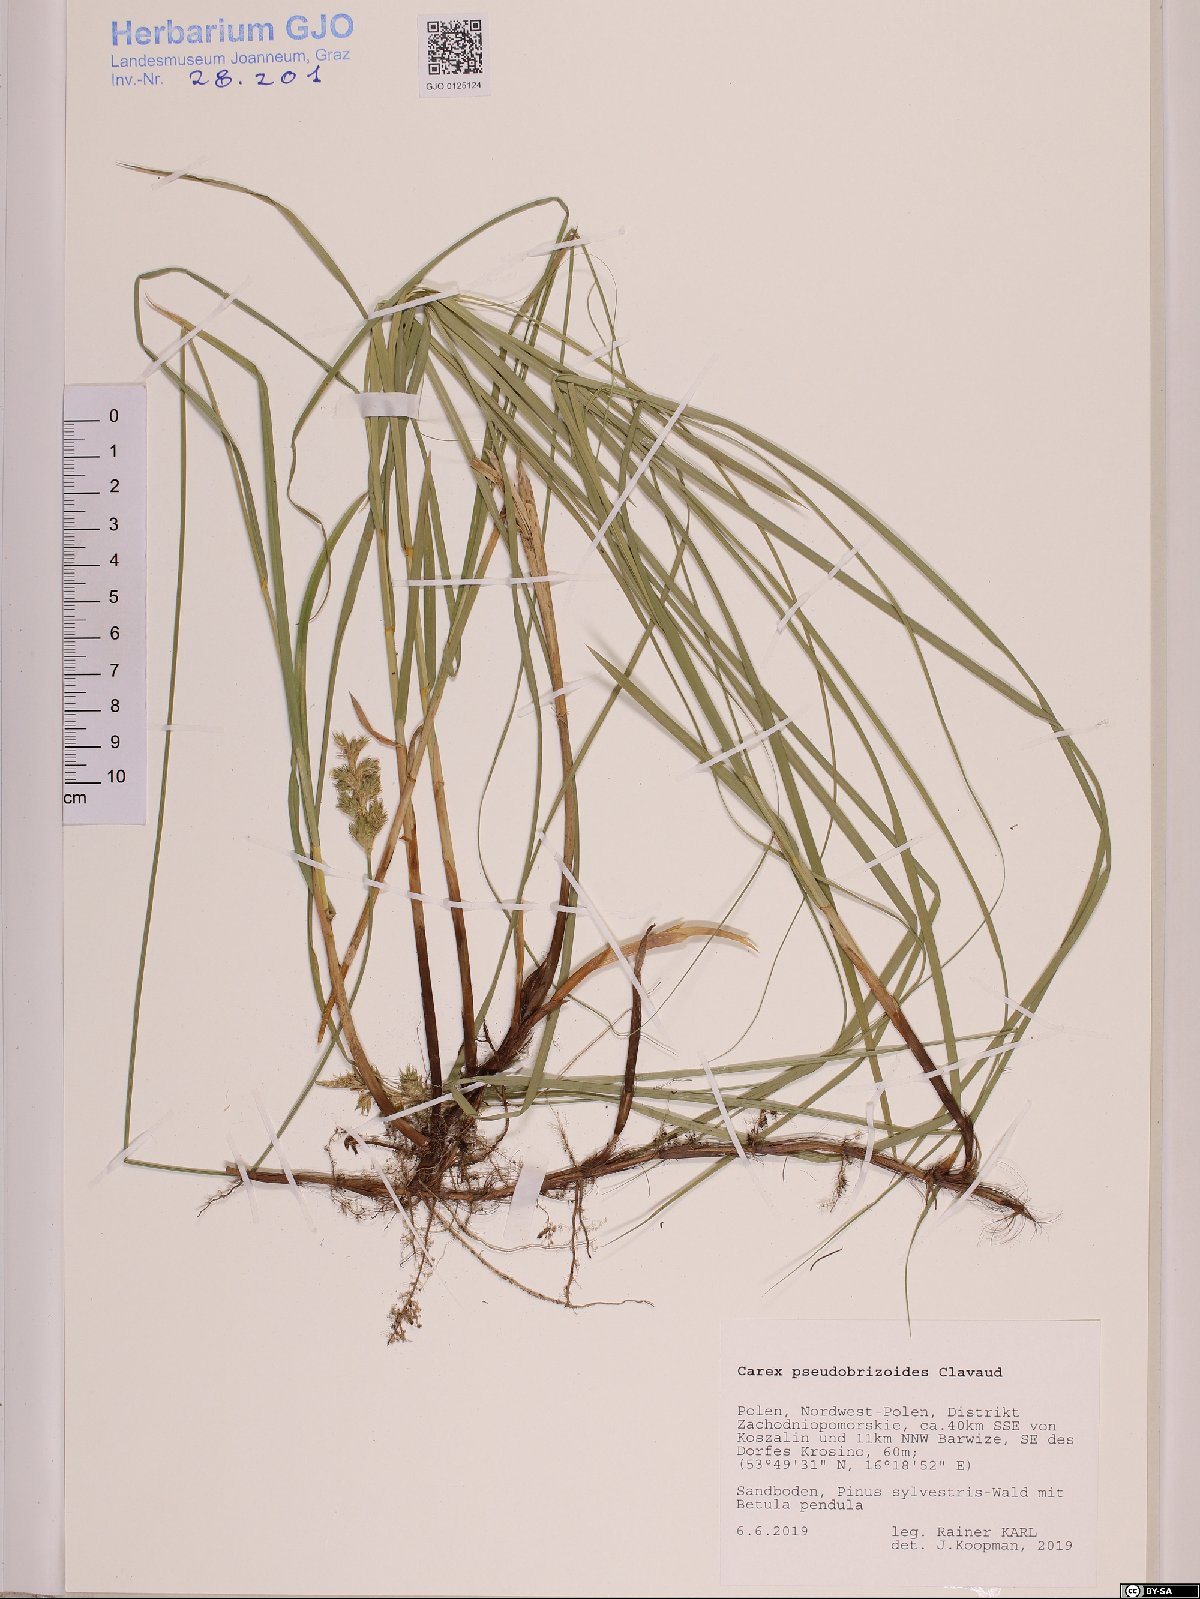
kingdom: Plantae
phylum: Tracheophyta
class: Liliopsida
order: Poales
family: Cyperaceae
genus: Carex
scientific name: Carex pseudobrizoides
